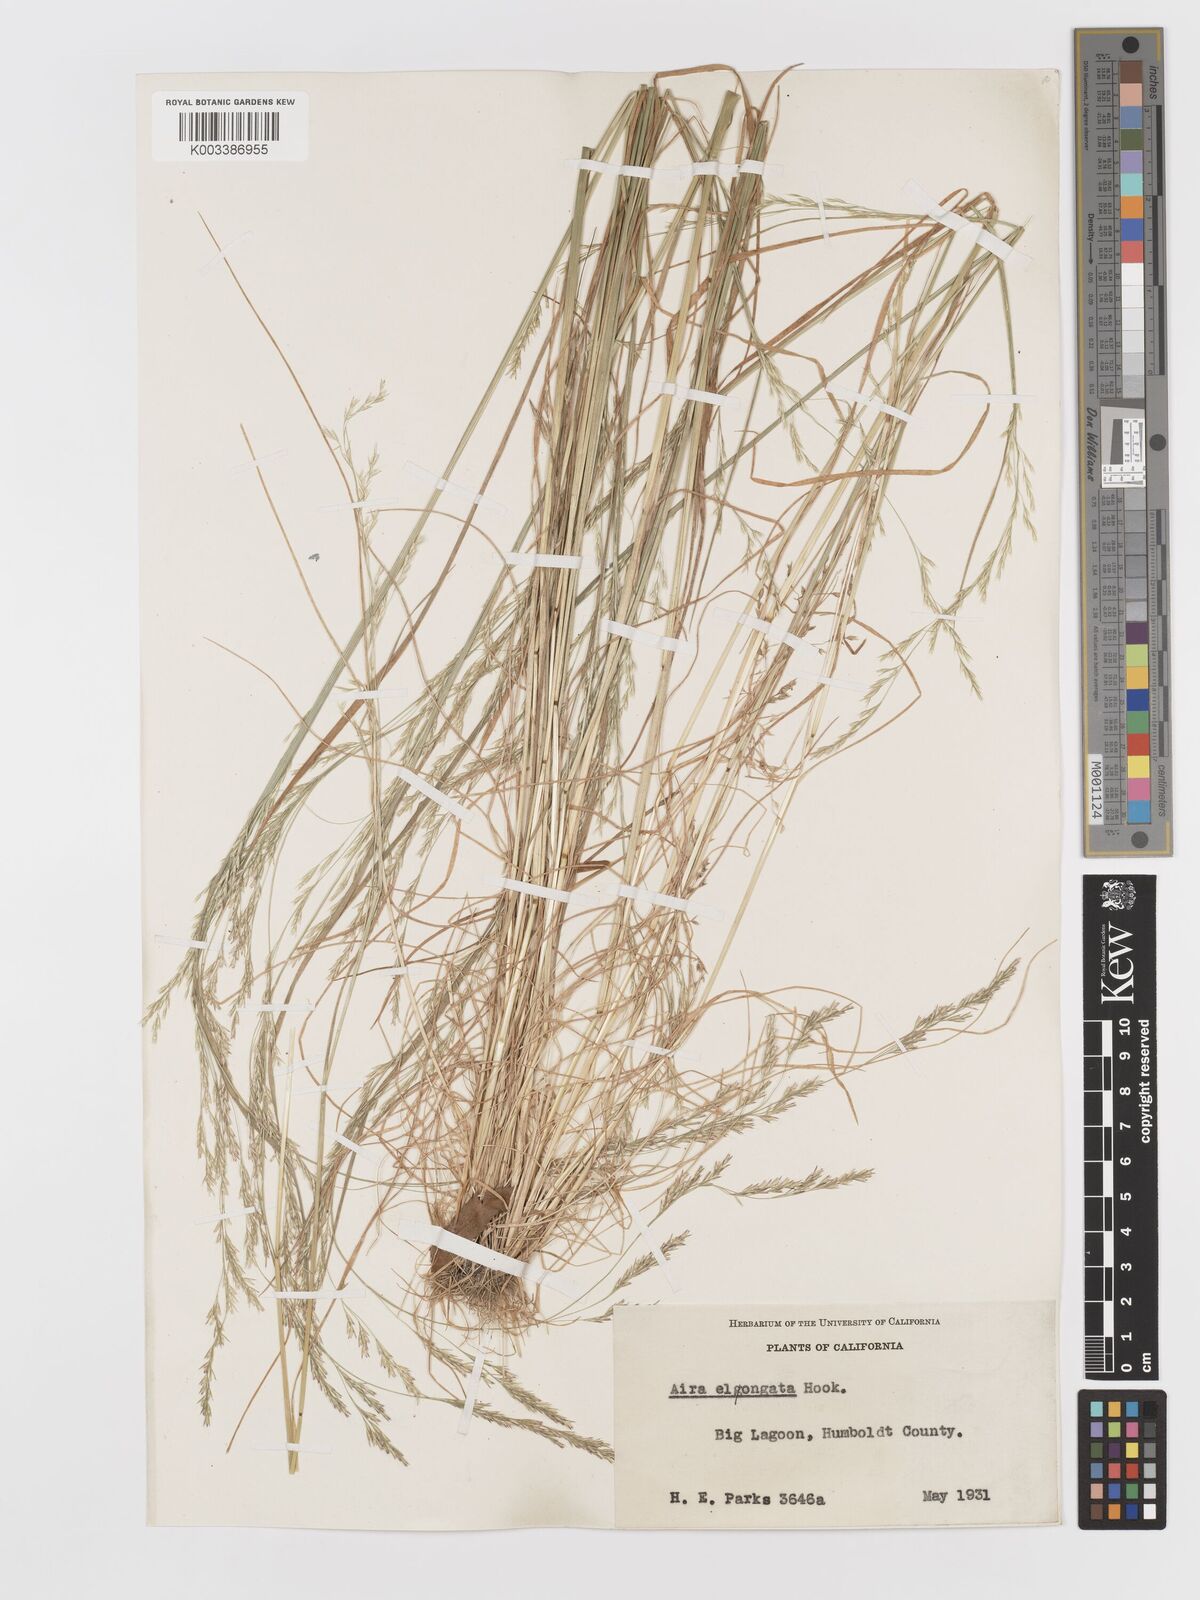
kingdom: Plantae
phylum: Tracheophyta
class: Liliopsida
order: Poales
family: Poaceae
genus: Deschampsia
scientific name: Deschampsia elongata
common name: Slender hairgrass
